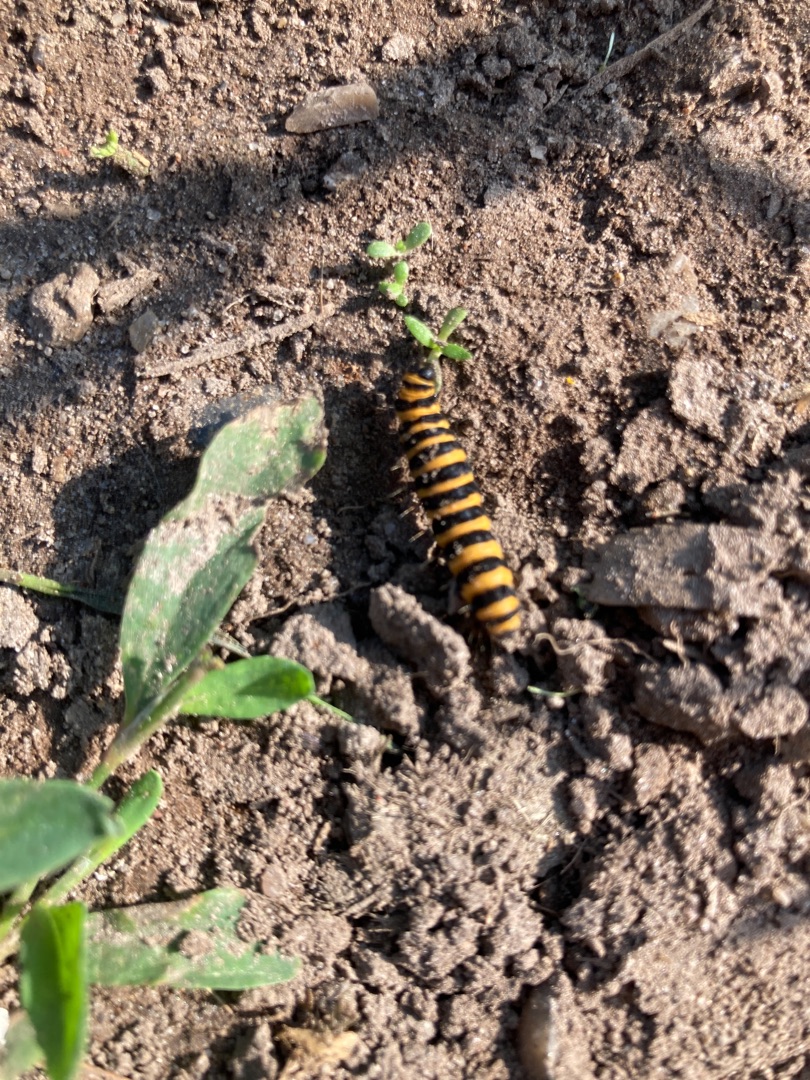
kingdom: Animalia
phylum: Arthropoda
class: Insecta
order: Lepidoptera
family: Erebidae
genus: Tyria
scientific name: Tyria jacobaeae
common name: Blodplet
